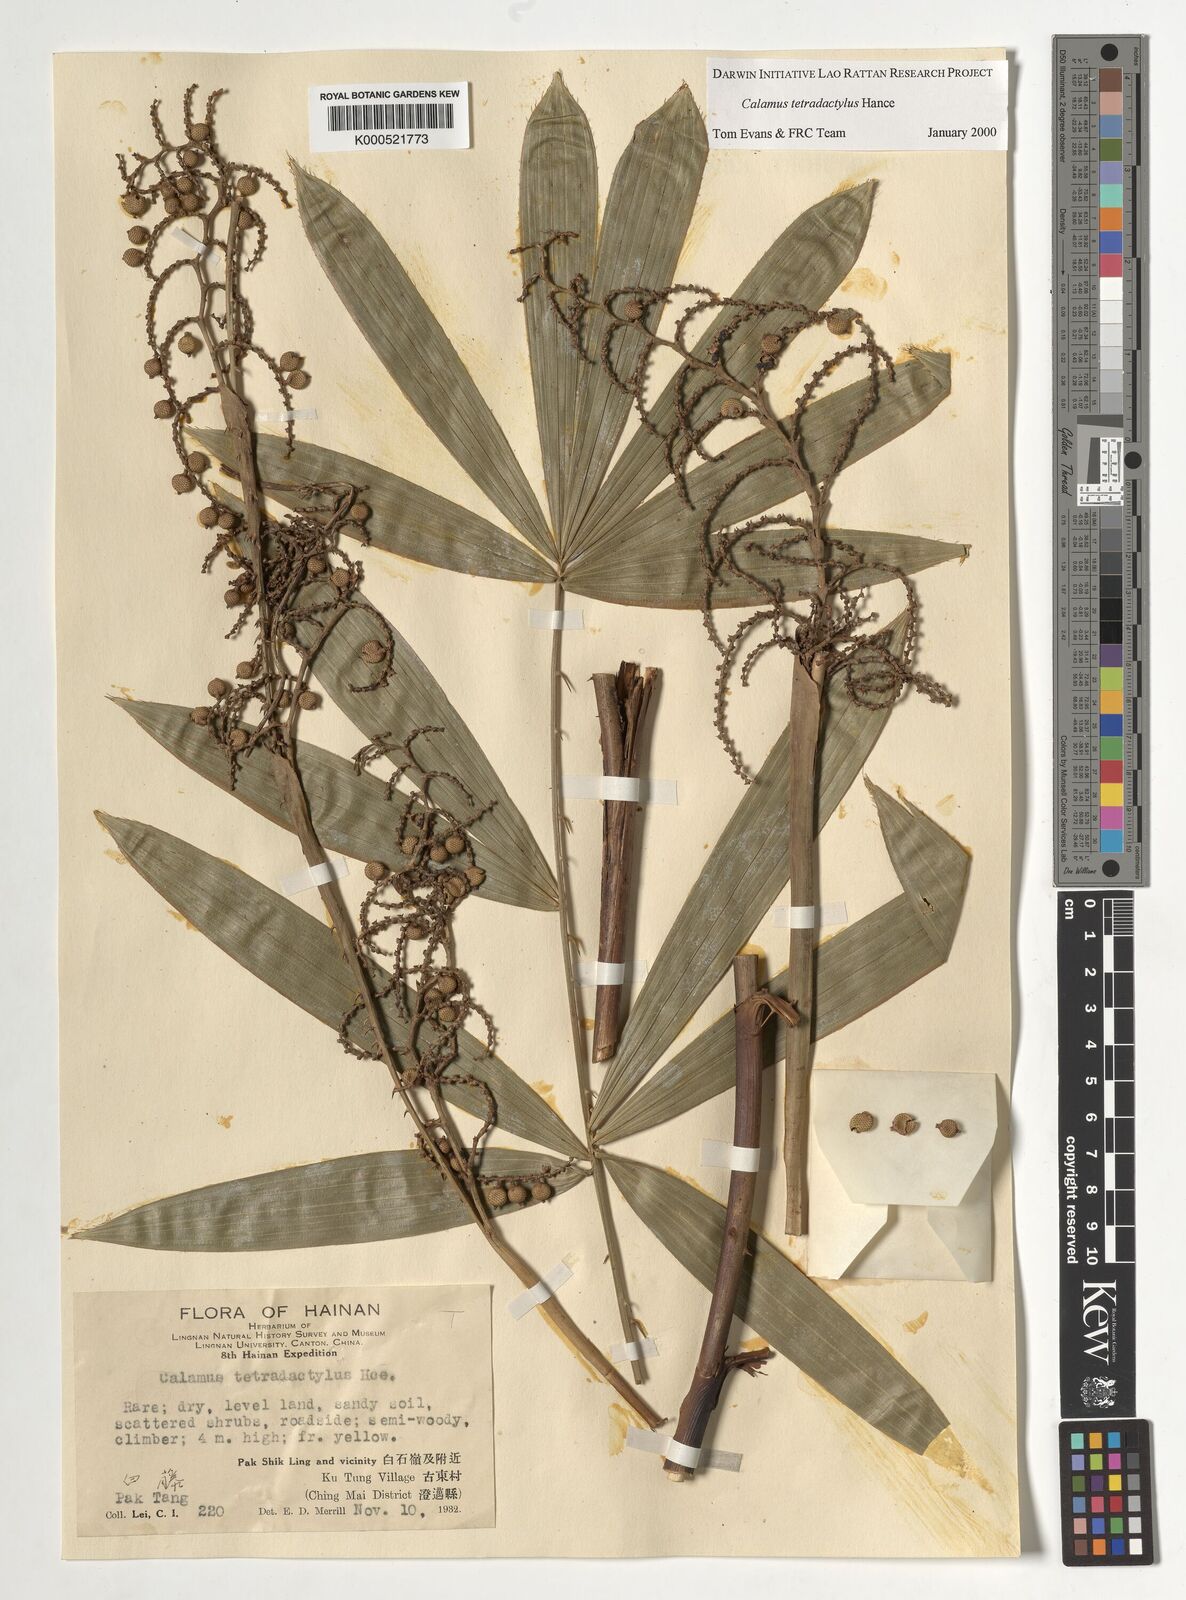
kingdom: Plantae
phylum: Tracheophyta
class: Liliopsida
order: Arecales
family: Arecaceae
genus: Calamus
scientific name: Calamus tetradactylus
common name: White rattan
